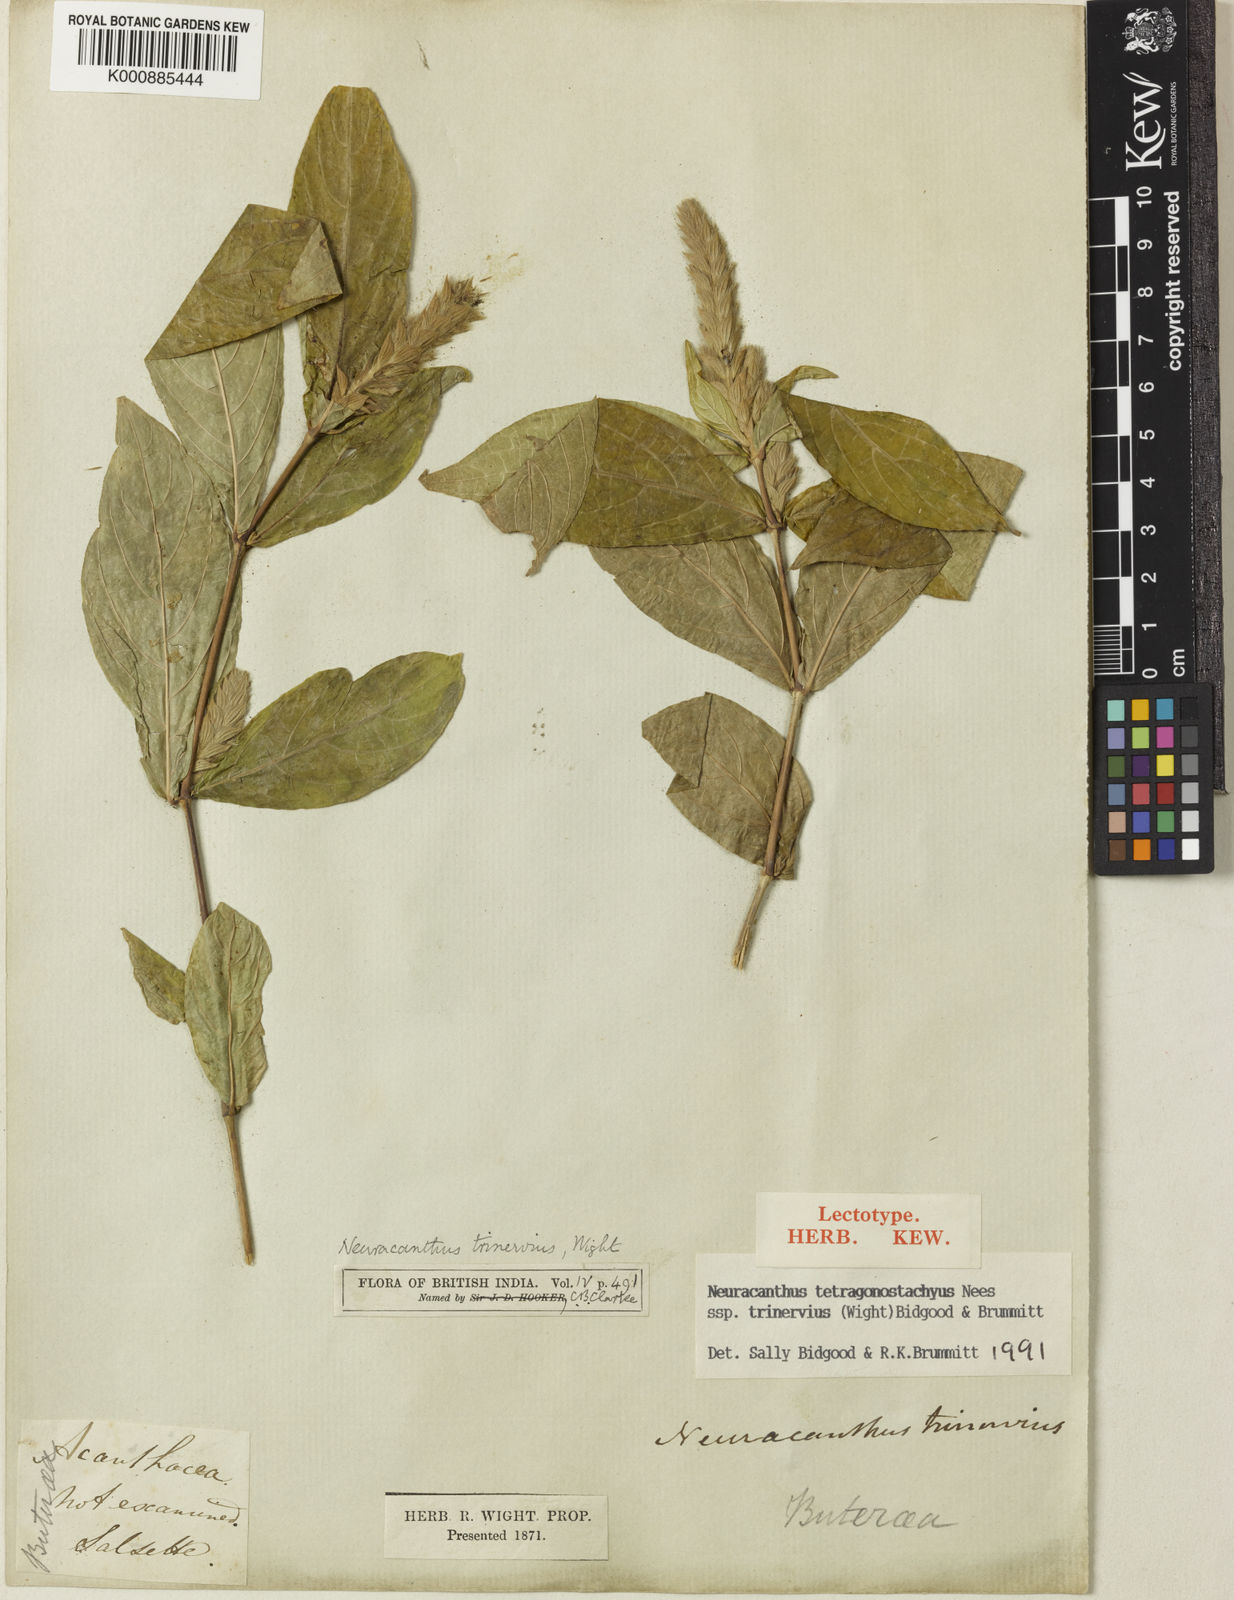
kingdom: Plantae
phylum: Tracheophyta
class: Magnoliopsida
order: Lamiales
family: Acanthaceae
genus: Neuracanthus
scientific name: Neuracanthus tetragonostachyus
